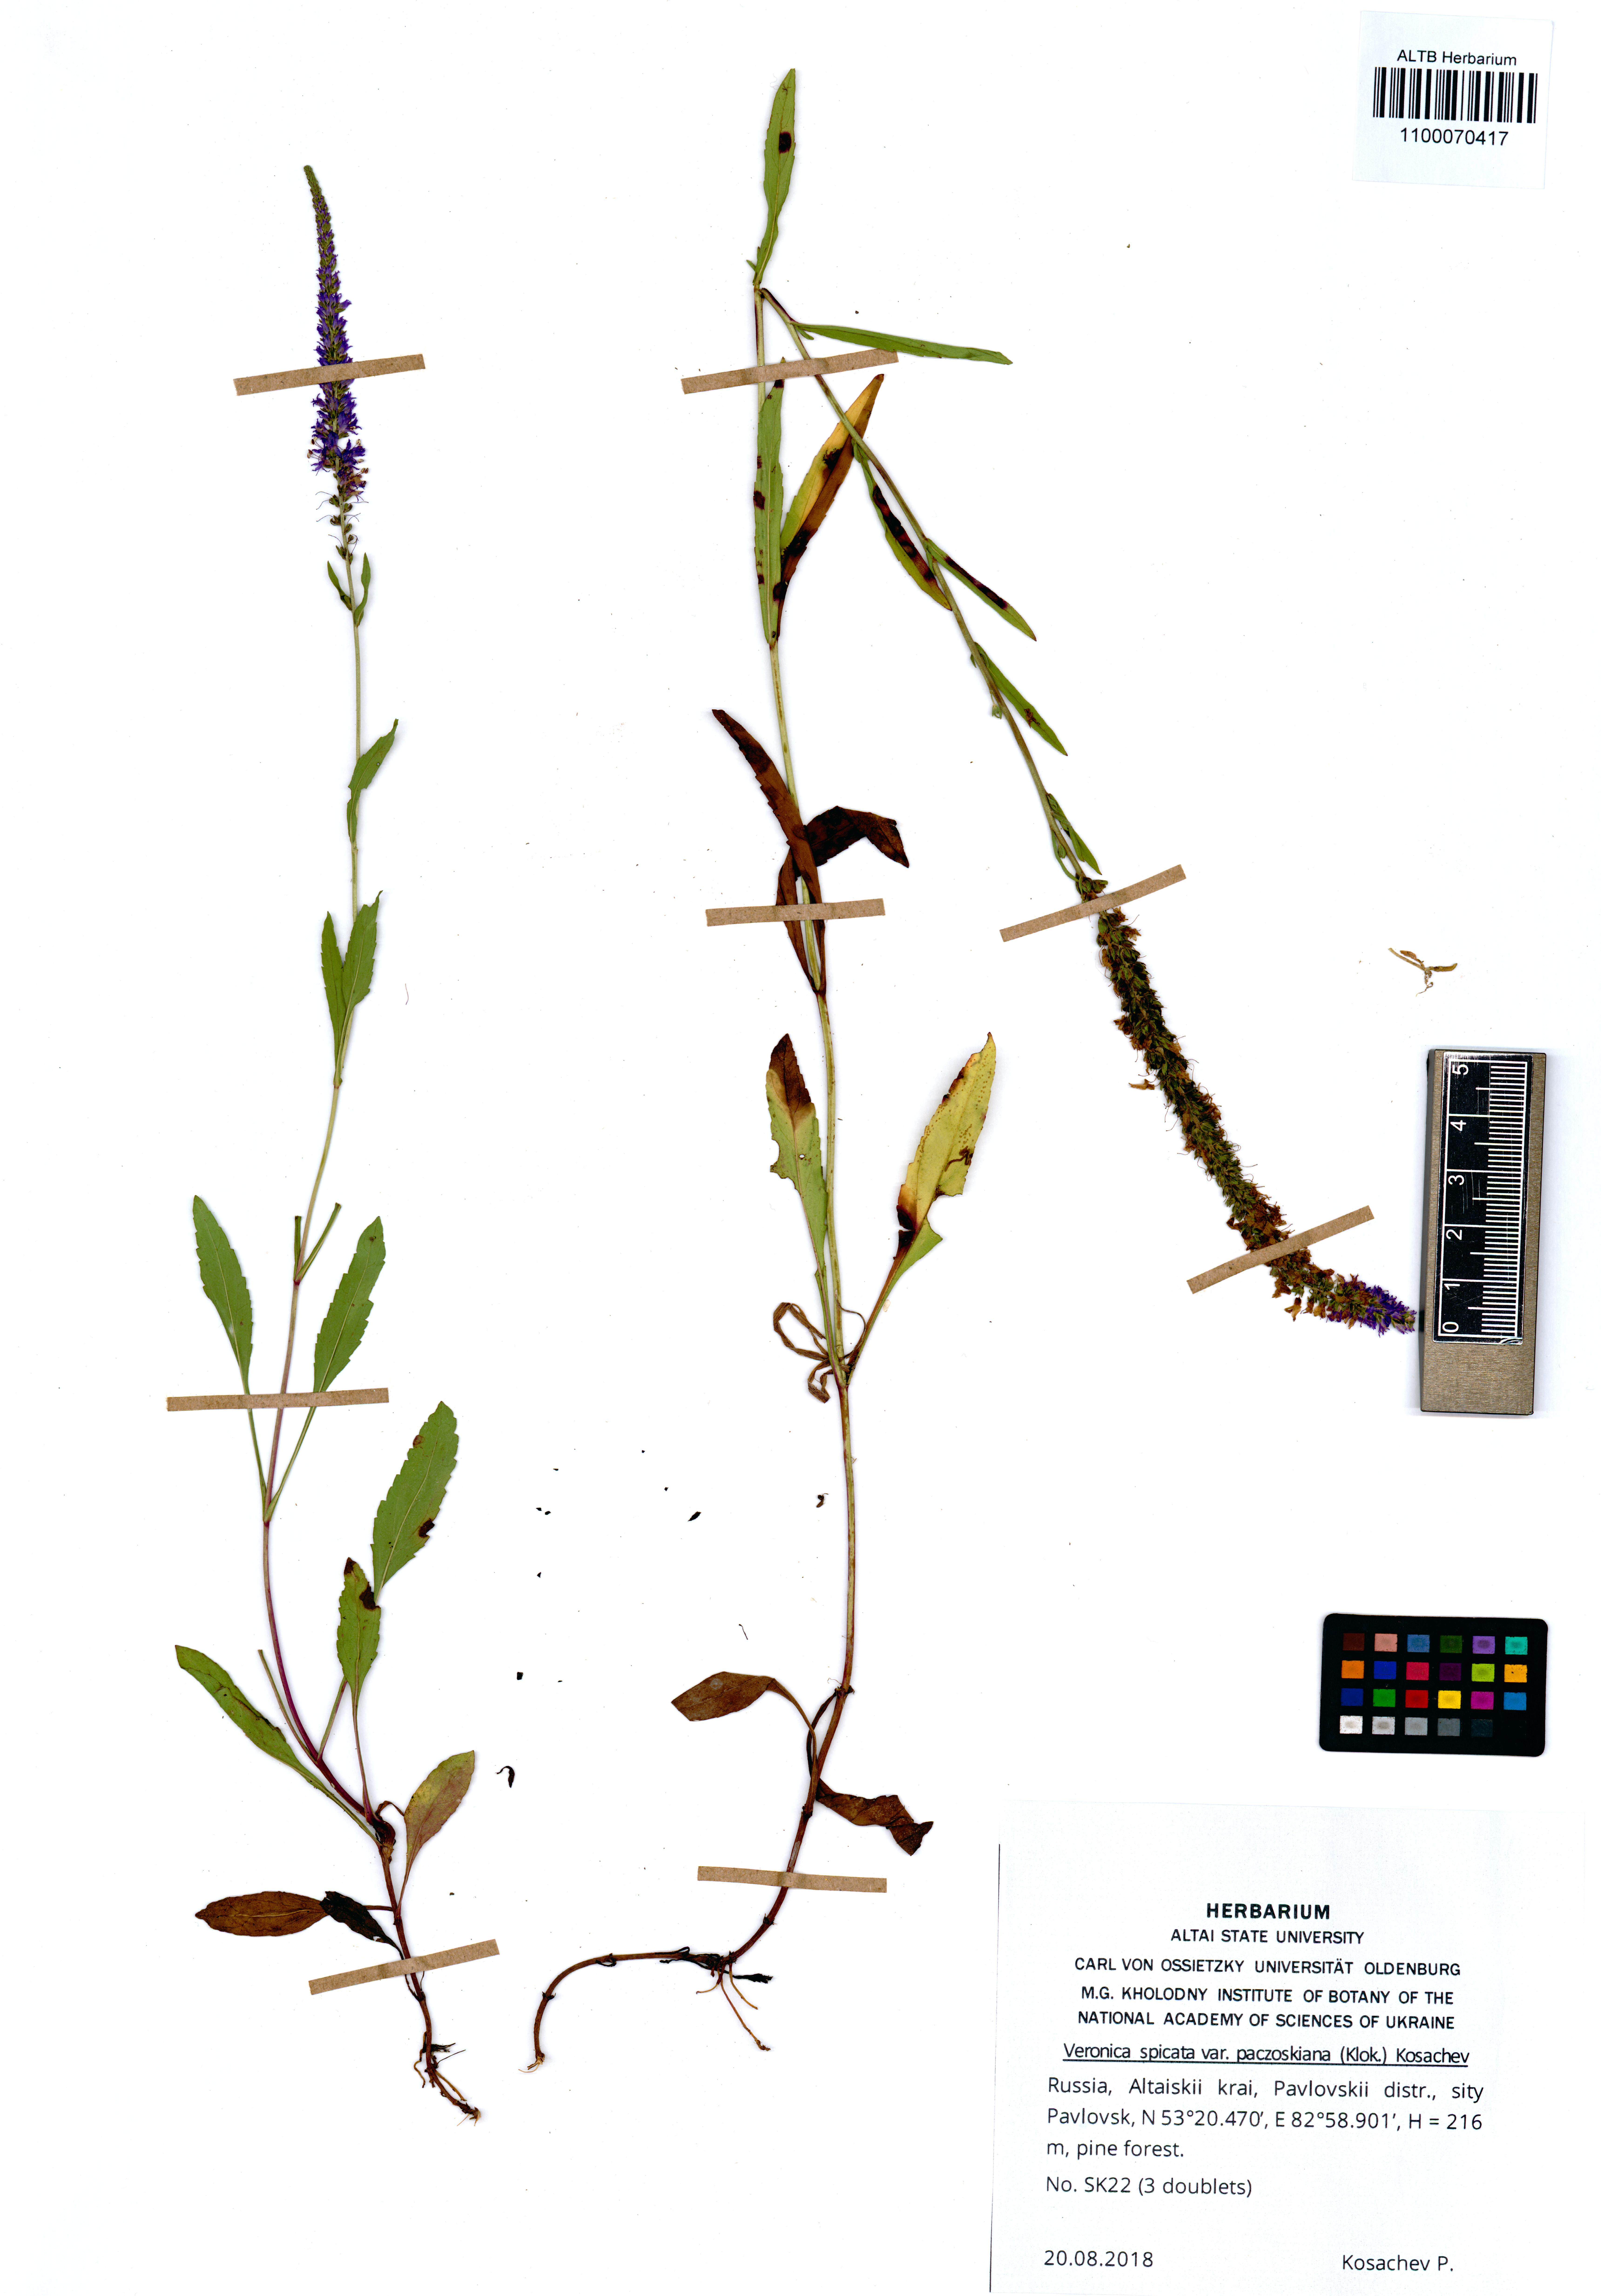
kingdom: Plantae
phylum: Tracheophyta
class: Magnoliopsida
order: Lamiales
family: Plantaginaceae
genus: Veronica
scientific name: Veronica spicata
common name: Spiked speedwell
